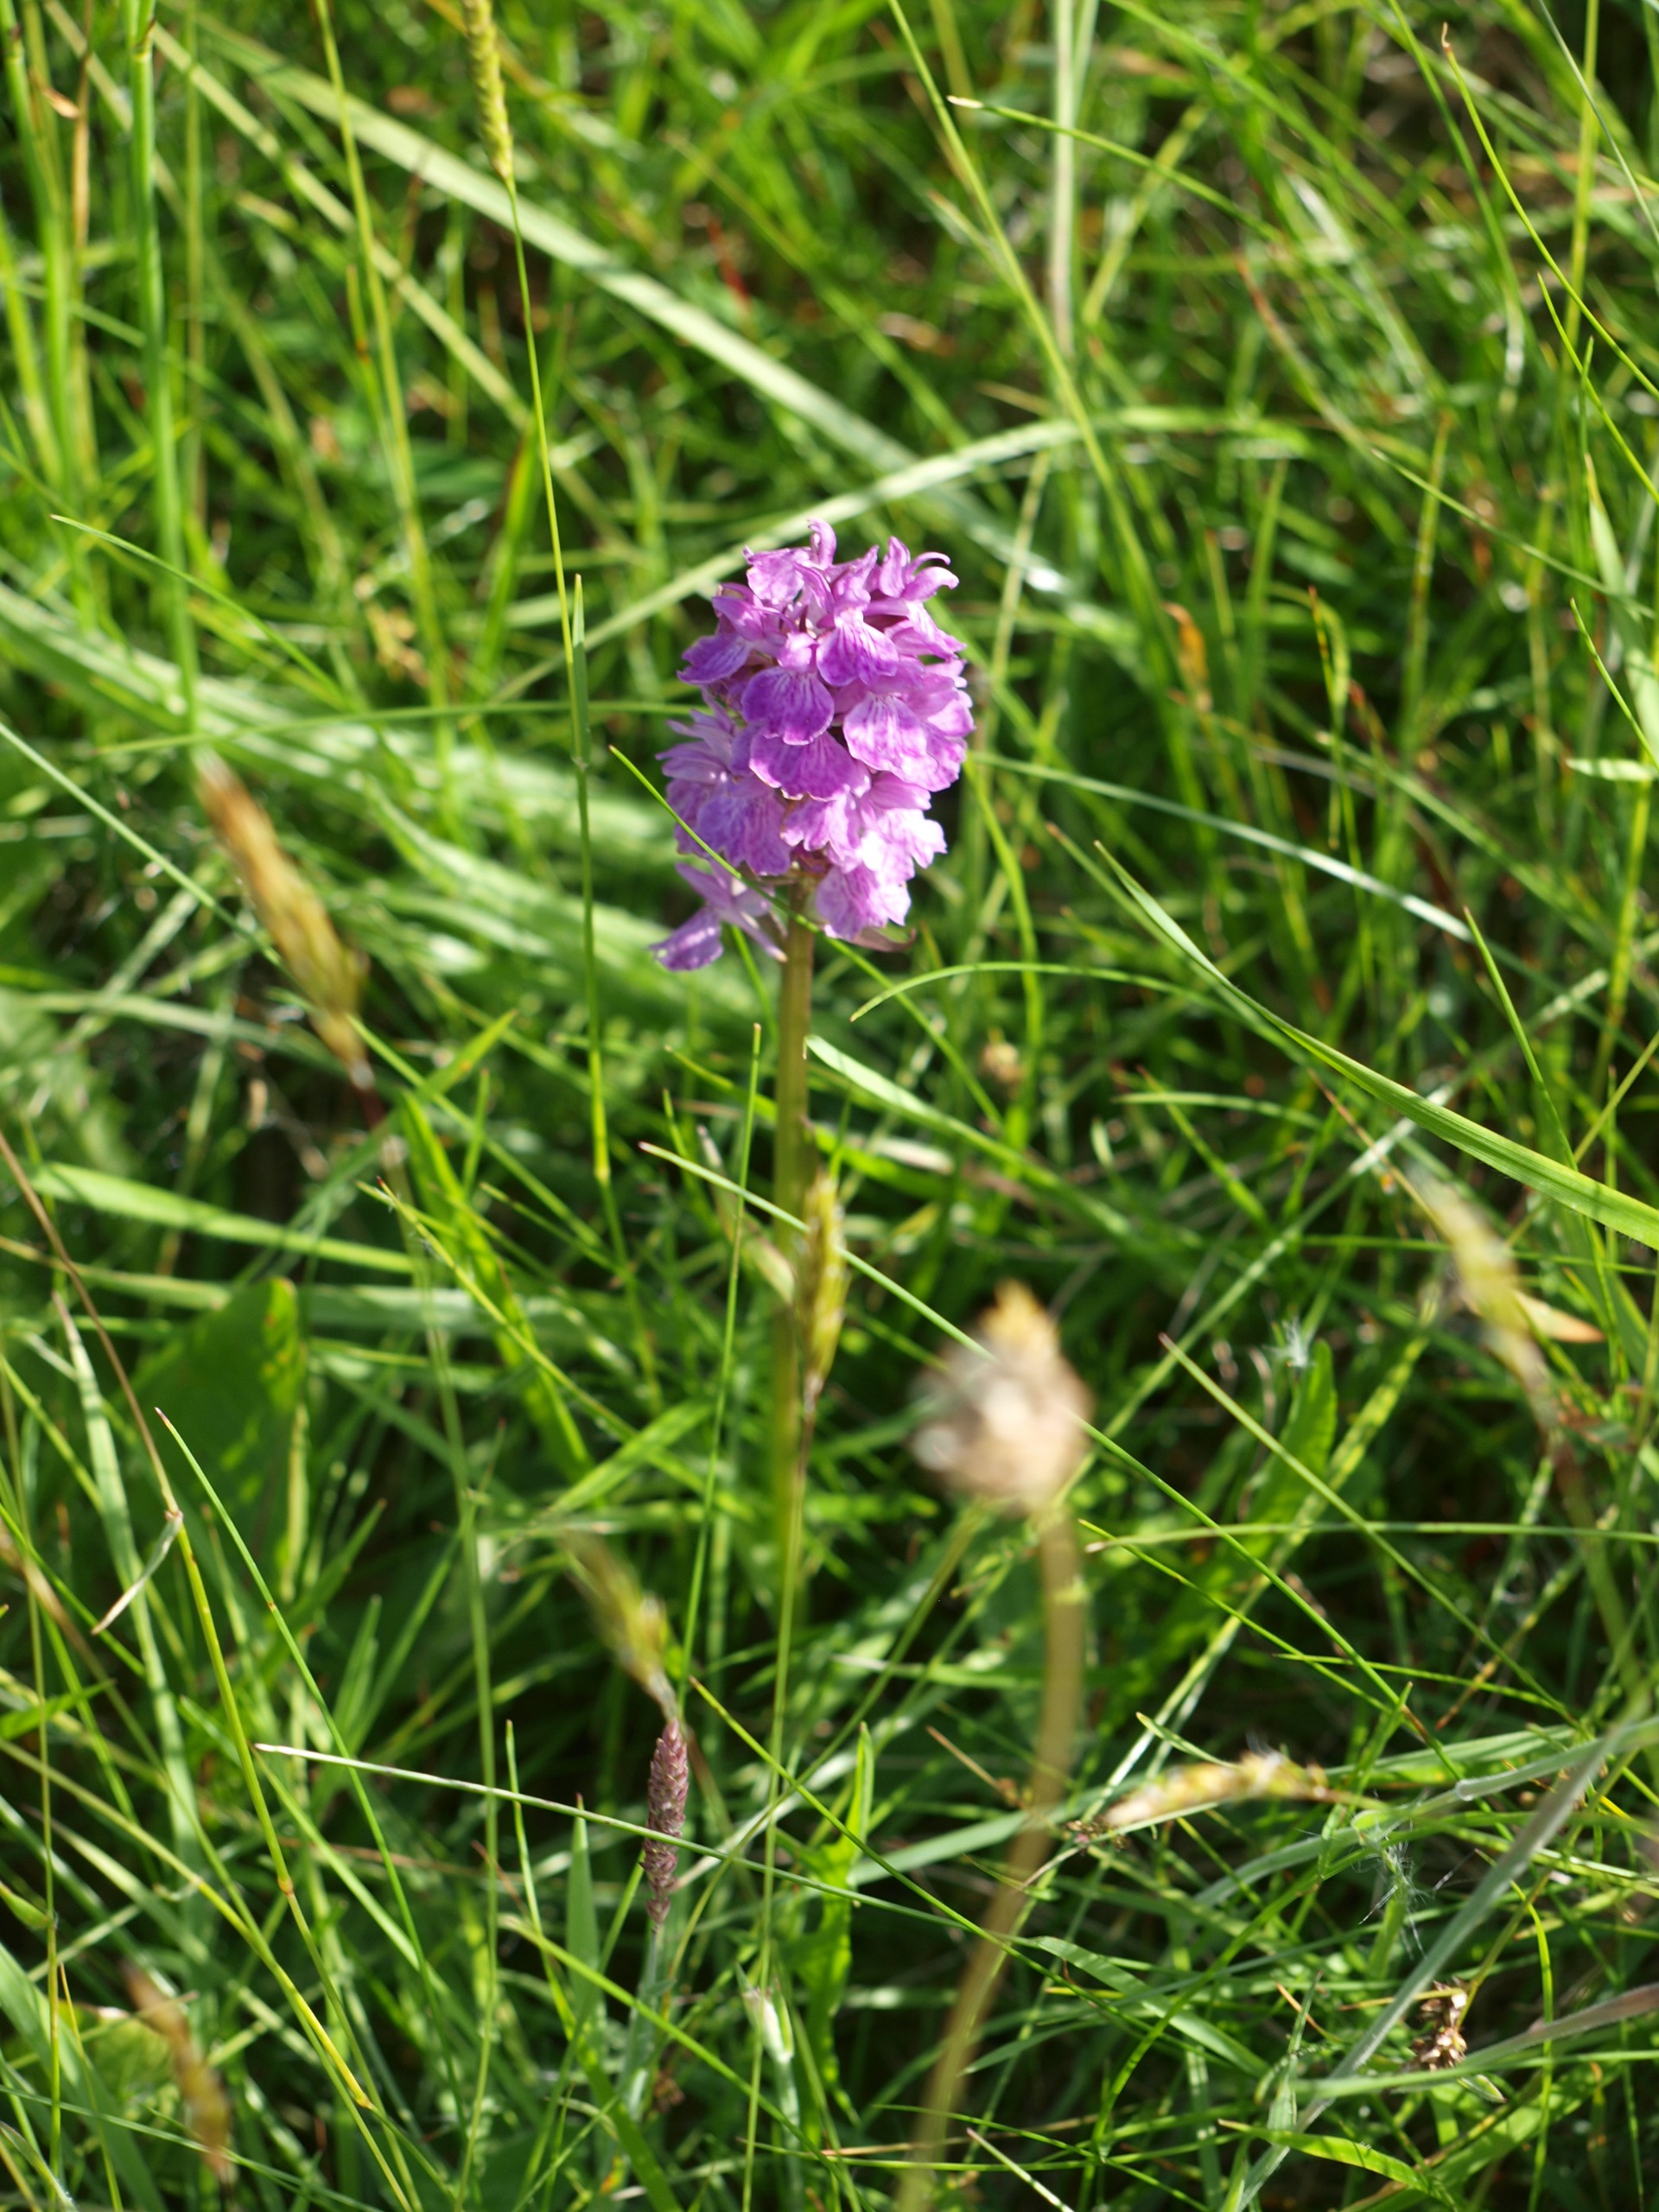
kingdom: Plantae
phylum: Tracheophyta
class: Liliopsida
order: Asparagales
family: Orchidaceae
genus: Dactylorhiza
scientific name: Dactylorhiza maculata
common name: Plettet gøgeurt
